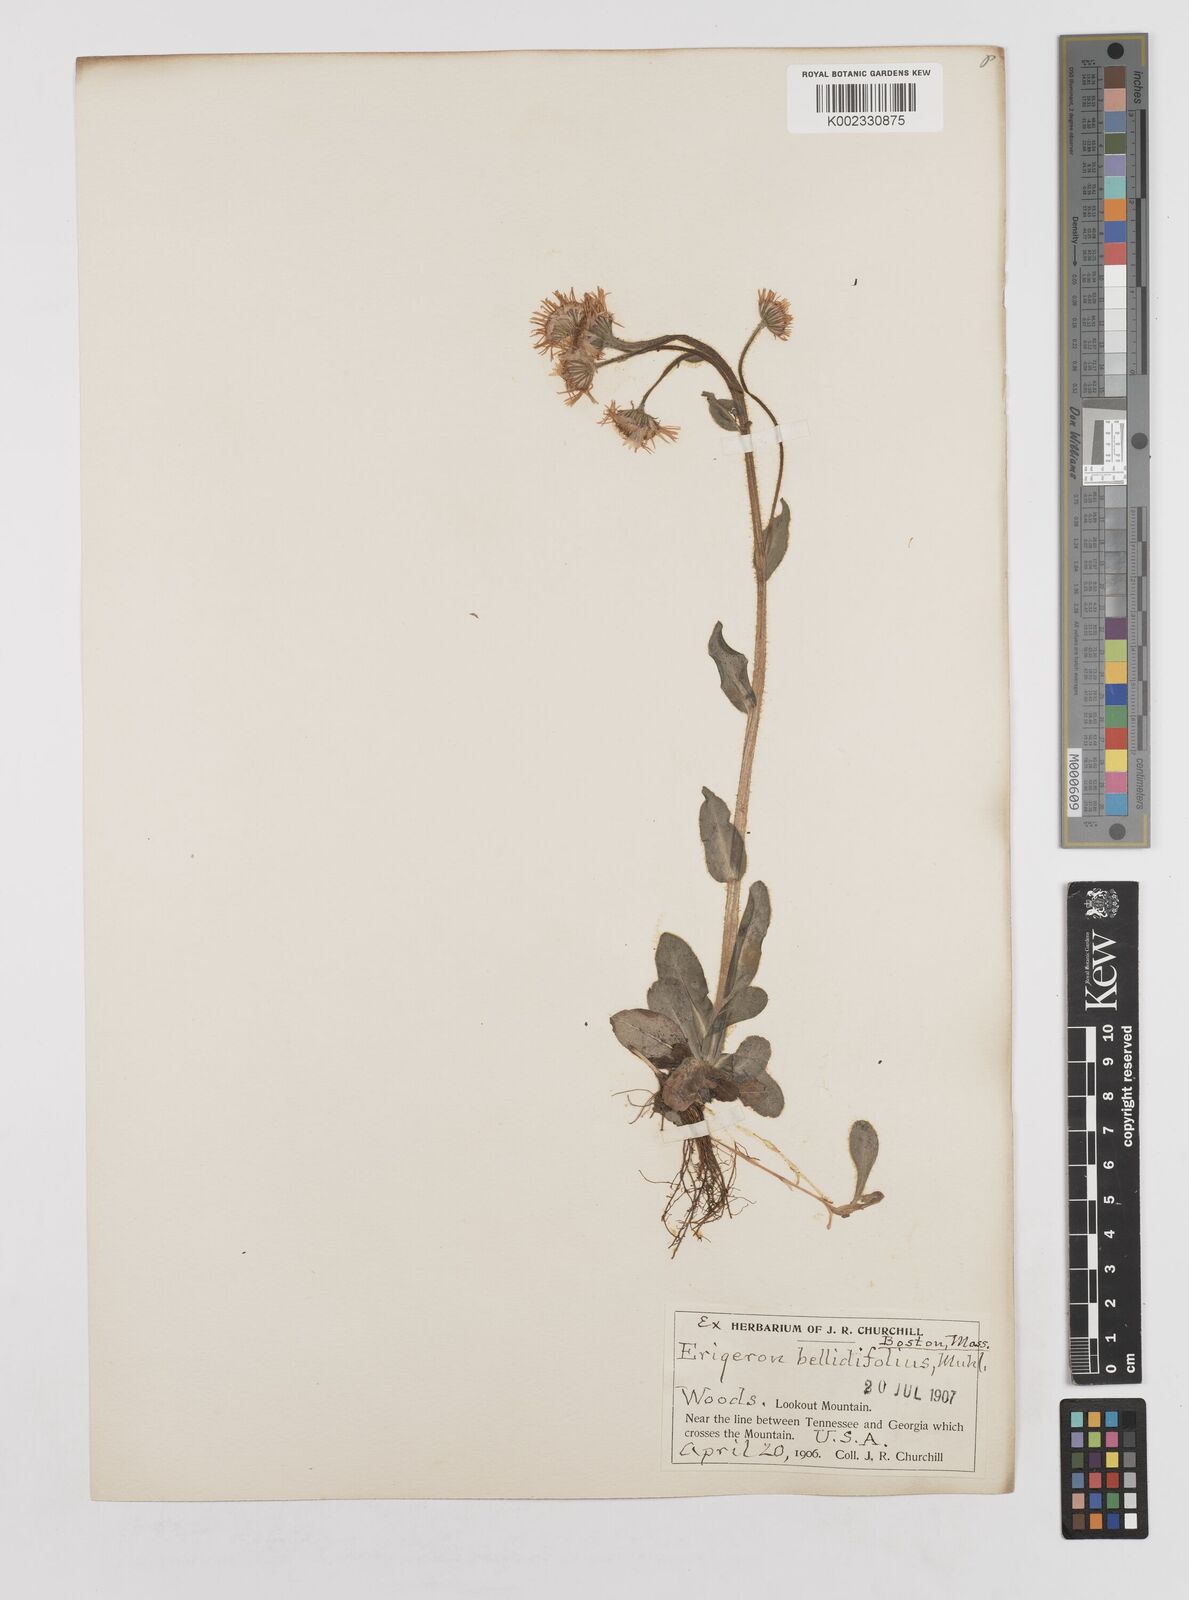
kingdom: Plantae
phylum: Tracheophyta
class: Magnoliopsida
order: Asterales
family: Asteraceae
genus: Erigeron
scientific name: Erigeron pulchellus
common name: Hairy fleabane
